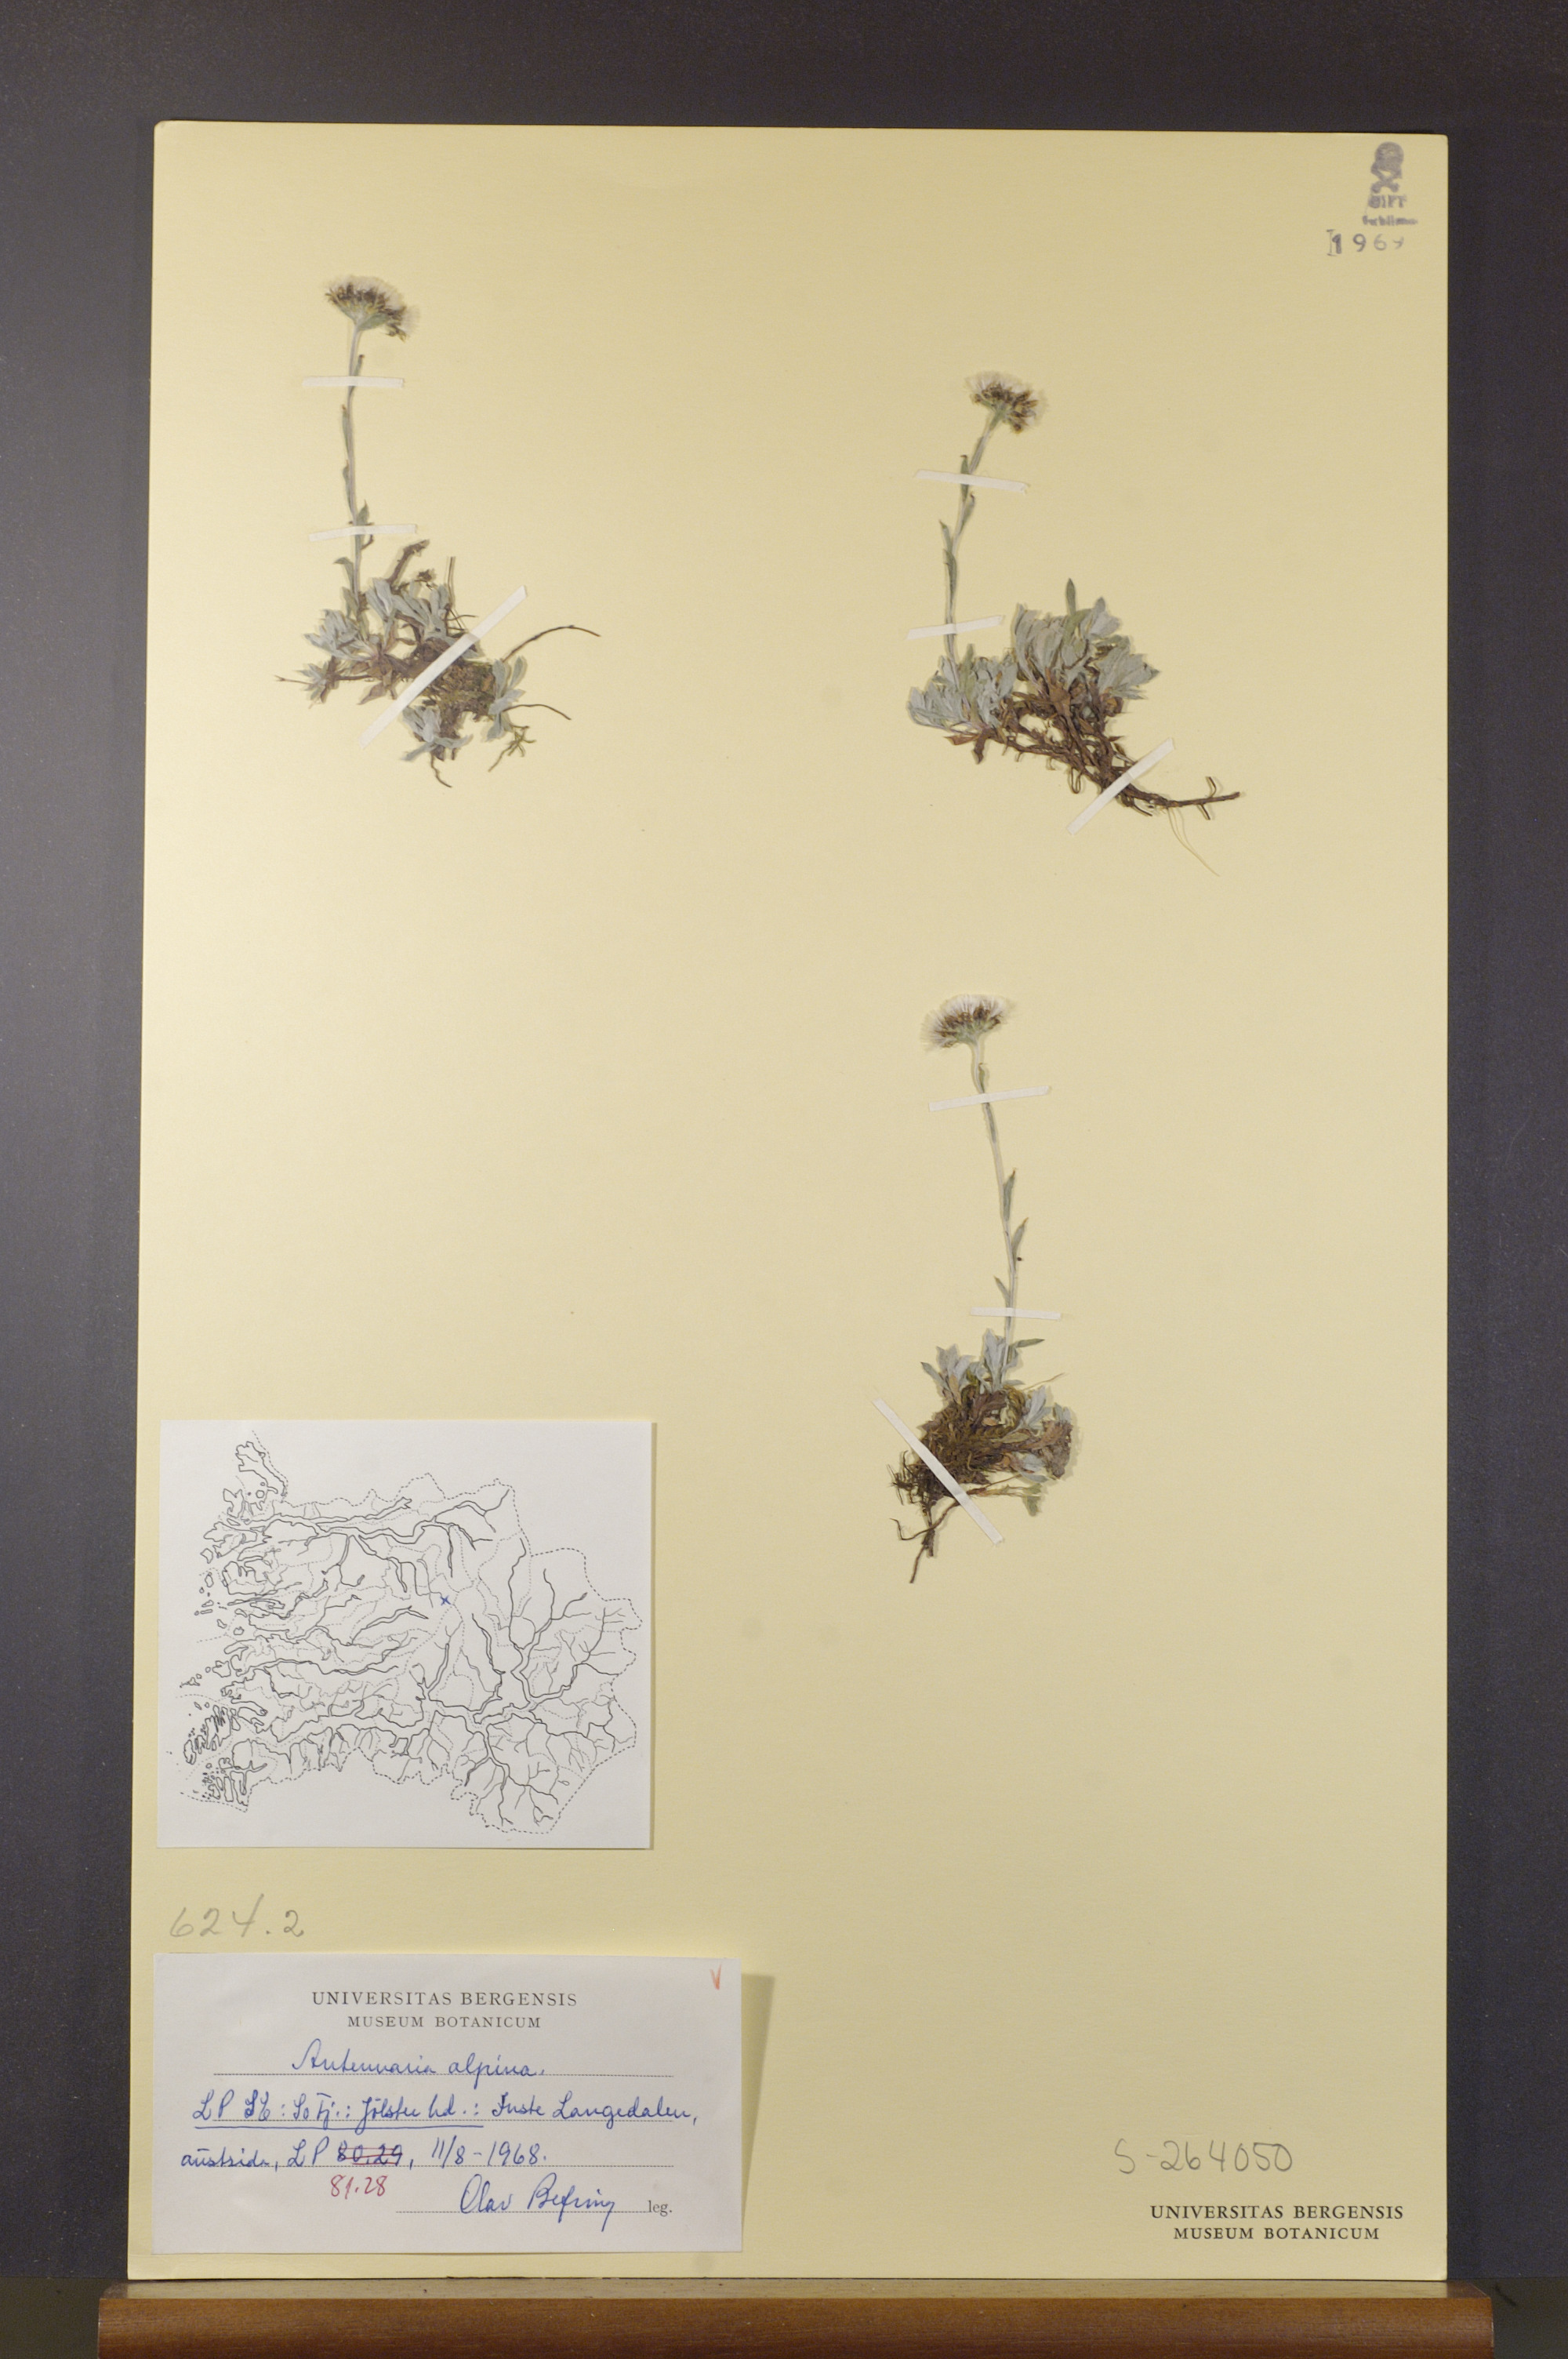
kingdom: Plantae
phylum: Tracheophyta
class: Magnoliopsida
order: Asterales
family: Asteraceae
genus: Antennaria
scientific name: Antennaria alpina
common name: Alpine pussytoes
